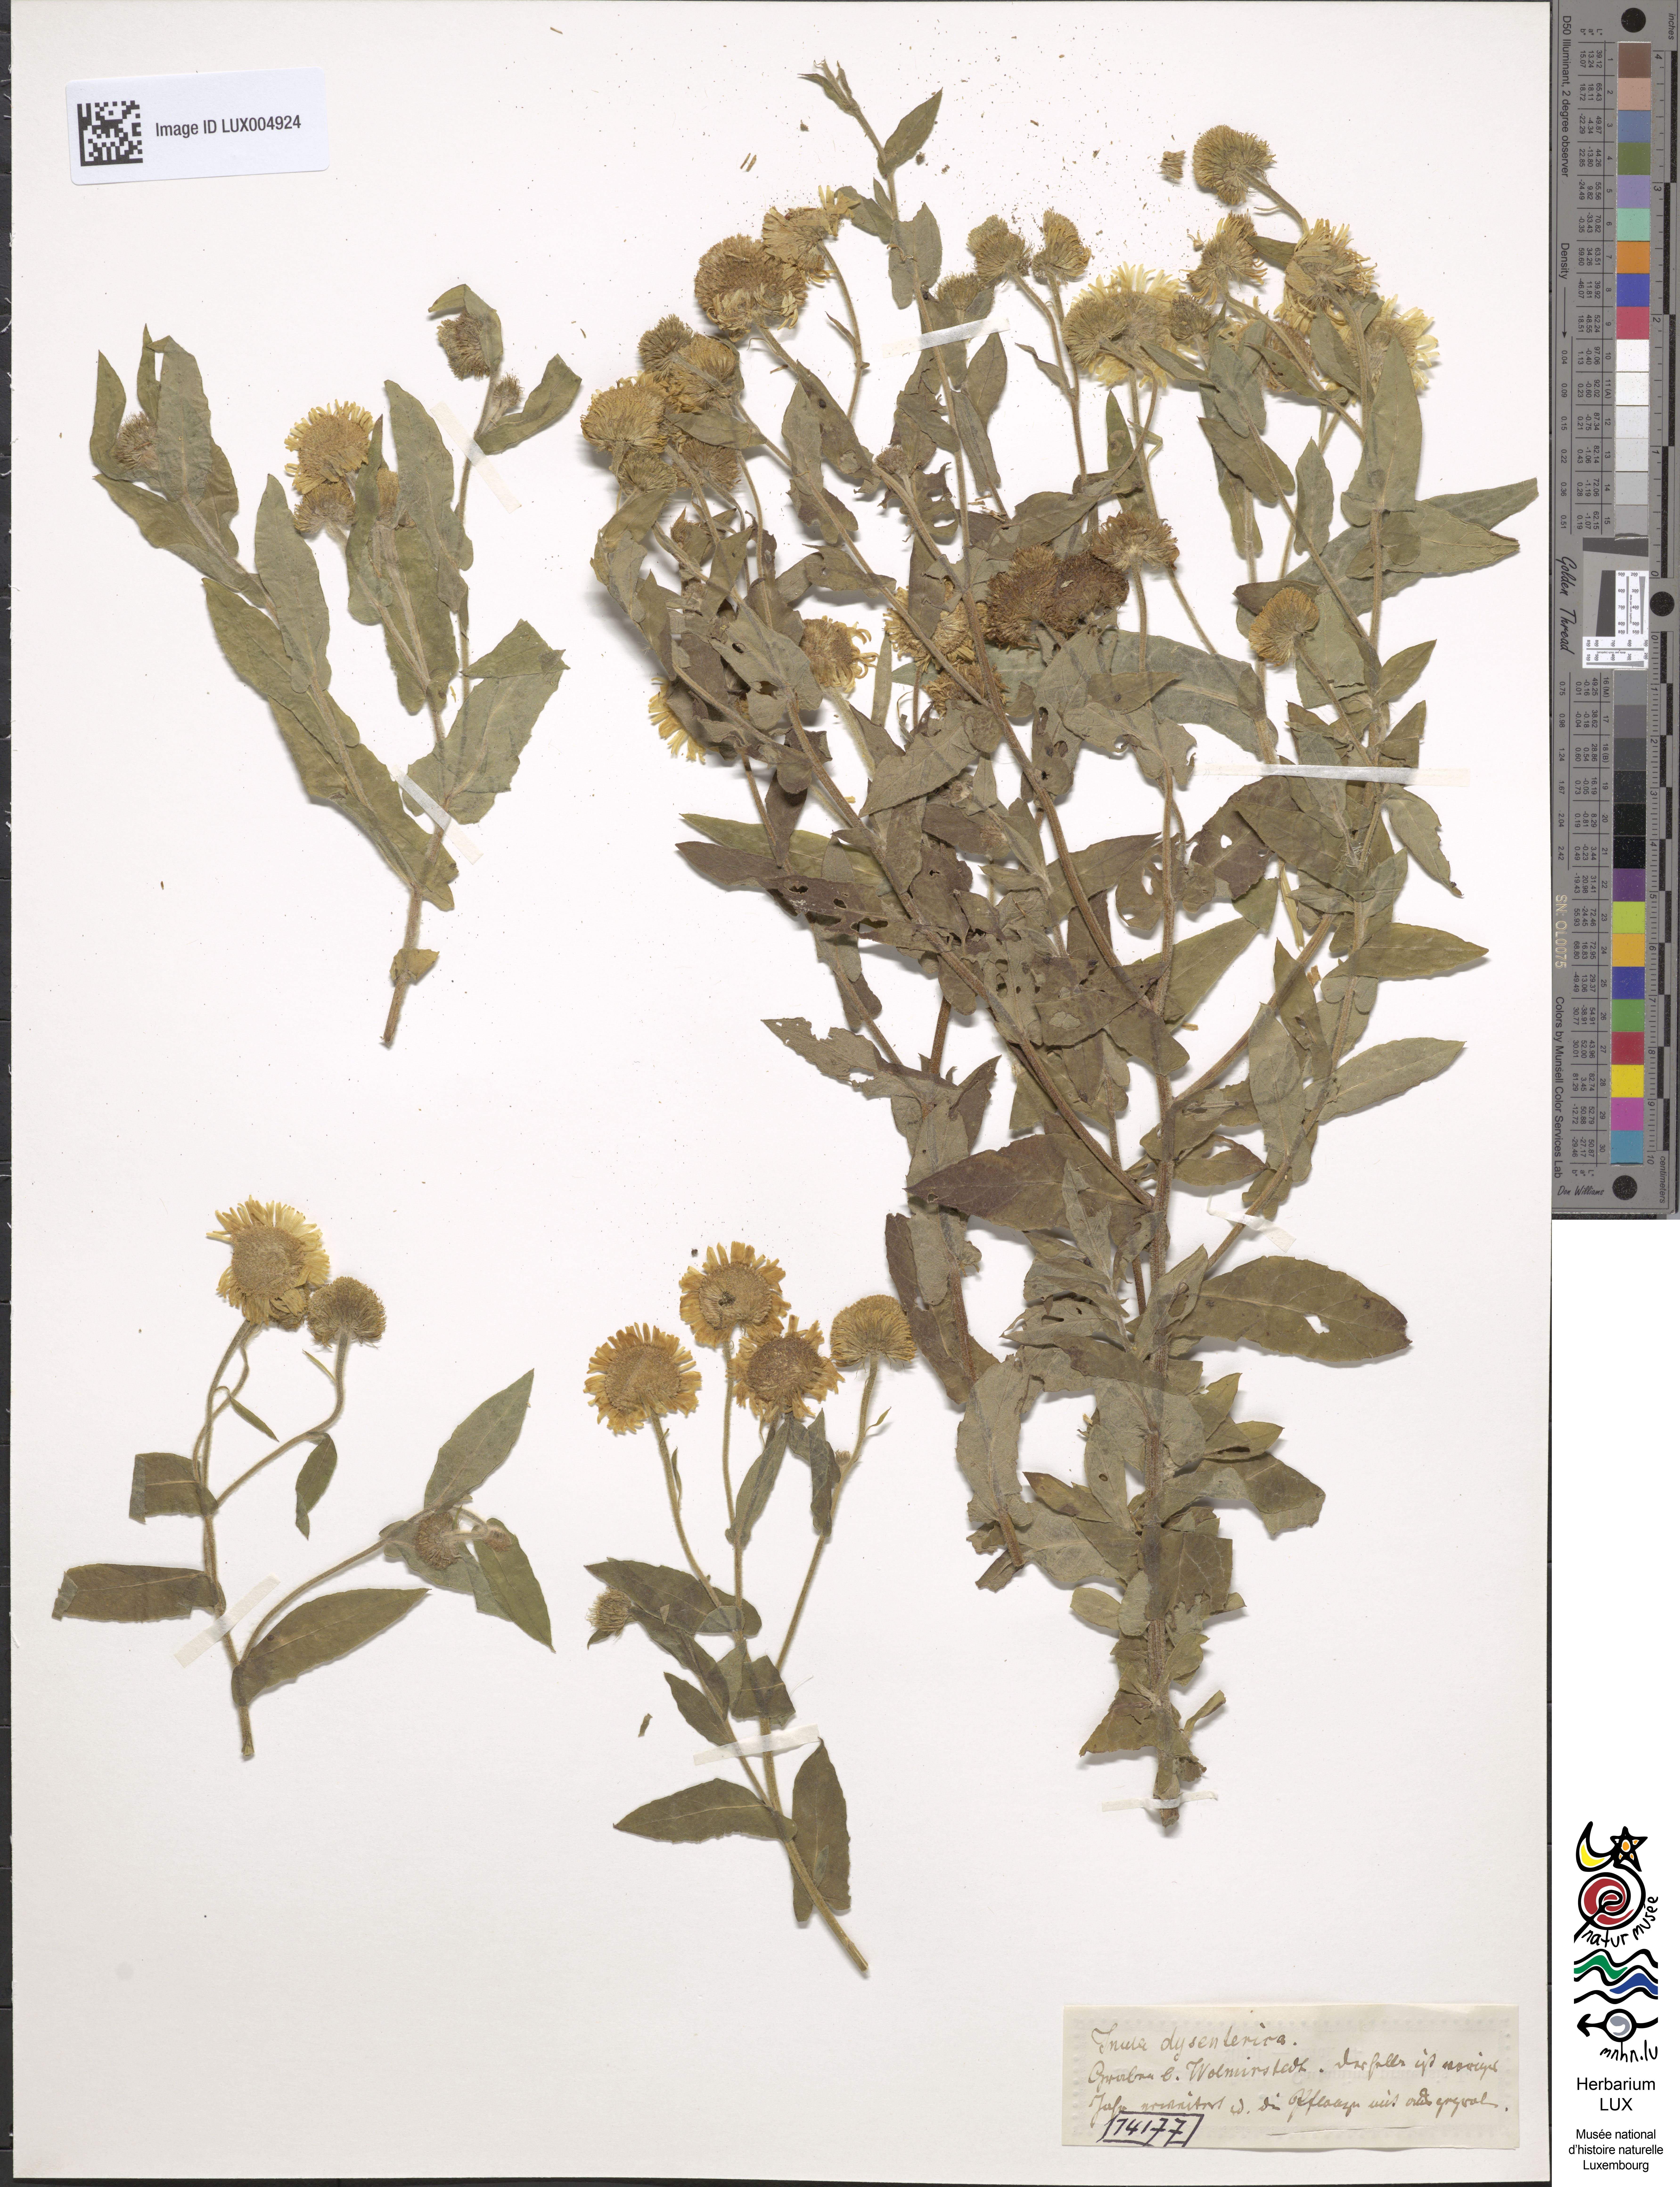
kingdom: Plantae
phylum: Tracheophyta
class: Magnoliopsida
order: Asterales
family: Asteraceae
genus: Pulicaria
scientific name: Pulicaria dysenterica
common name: Common fleabane
